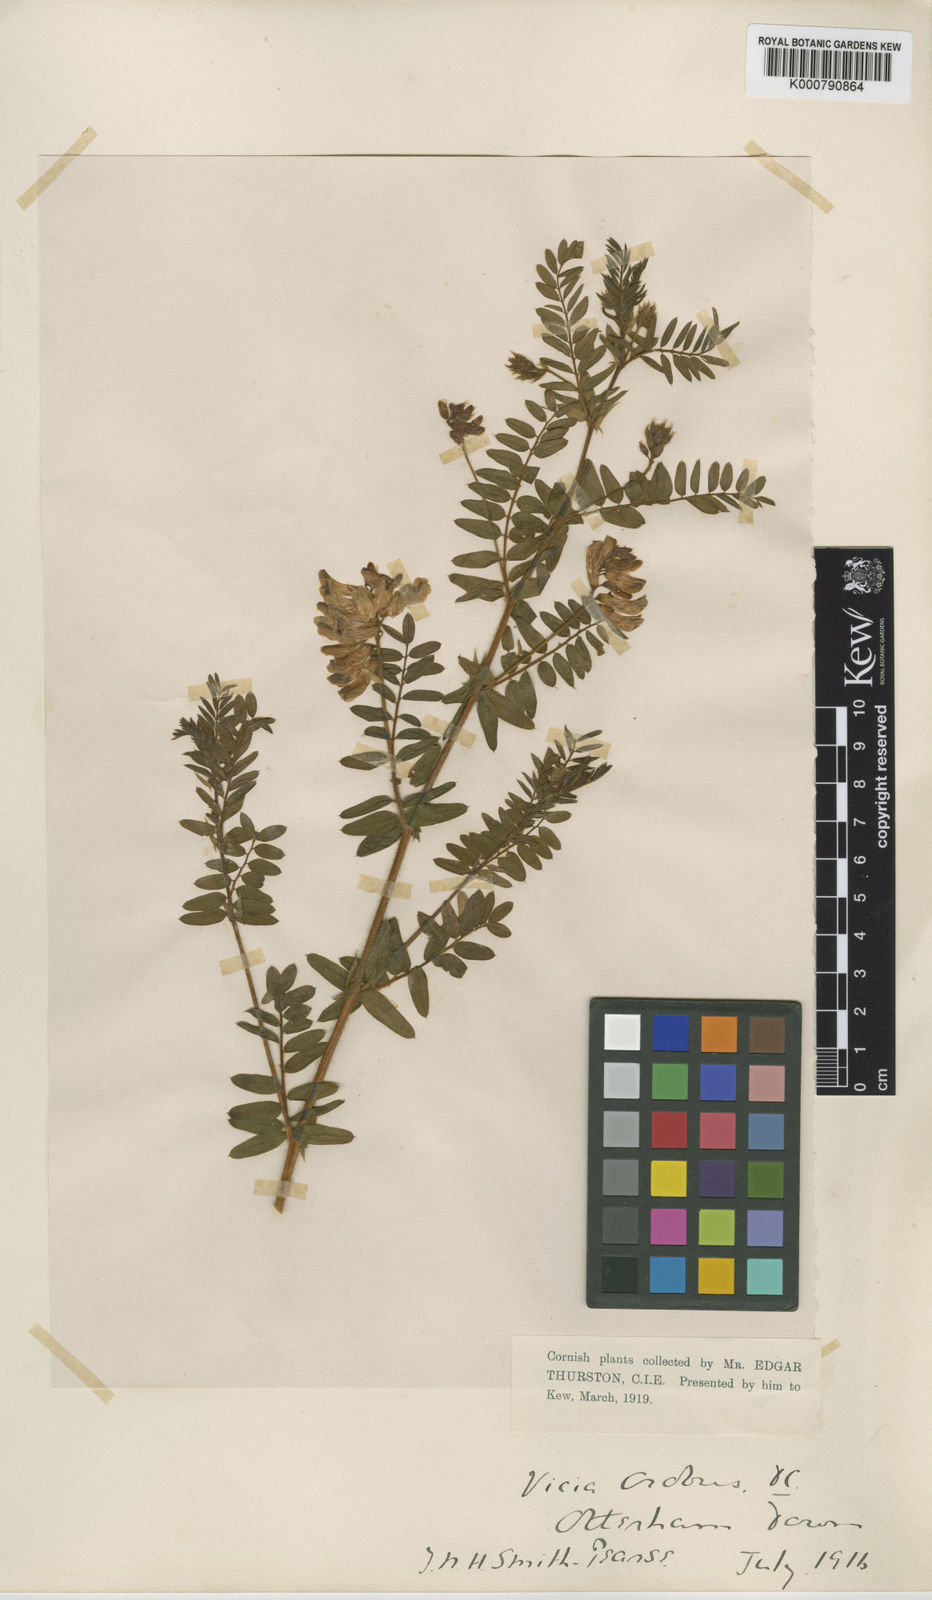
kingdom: Plantae
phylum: Tracheophyta
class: Magnoliopsida
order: Fabales
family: Fabaceae
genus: Vicia
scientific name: Vicia orobus
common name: Wood bitter-vetch
